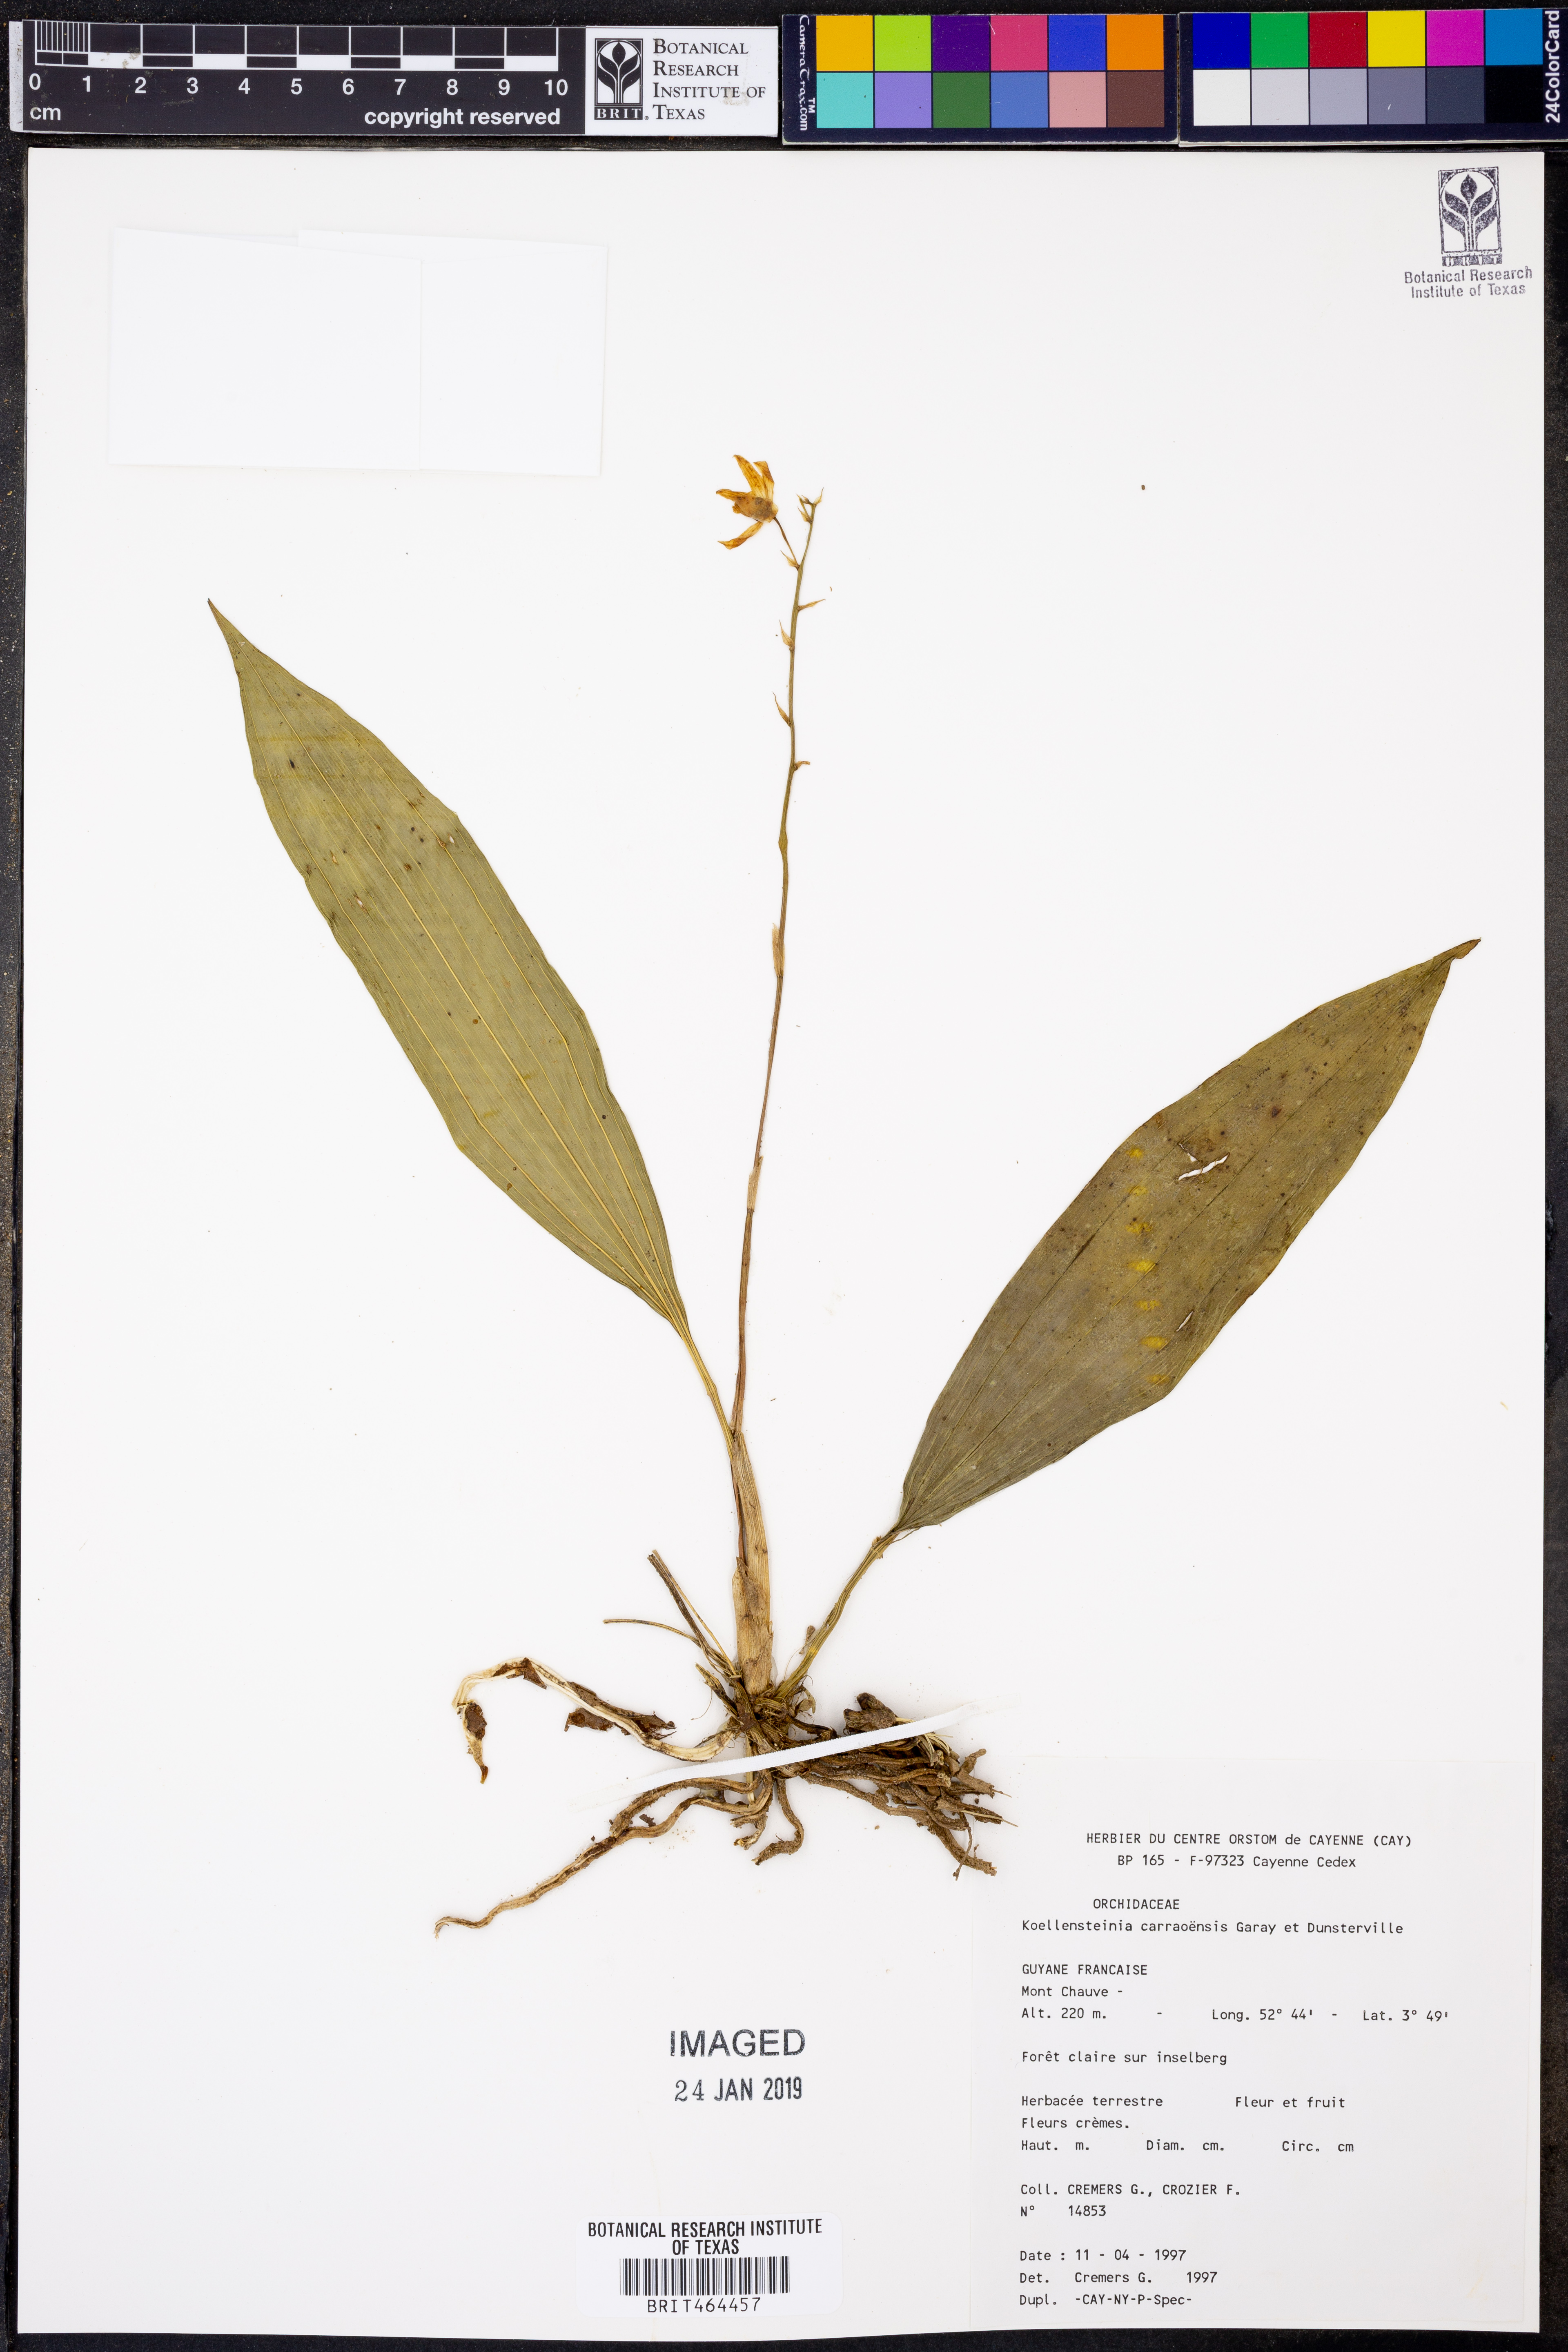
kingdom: Plantae
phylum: Tracheophyta
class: Liliopsida
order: Asparagales
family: Orchidaceae
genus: Koellensteinia
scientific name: Koellensteinia carraoensis
